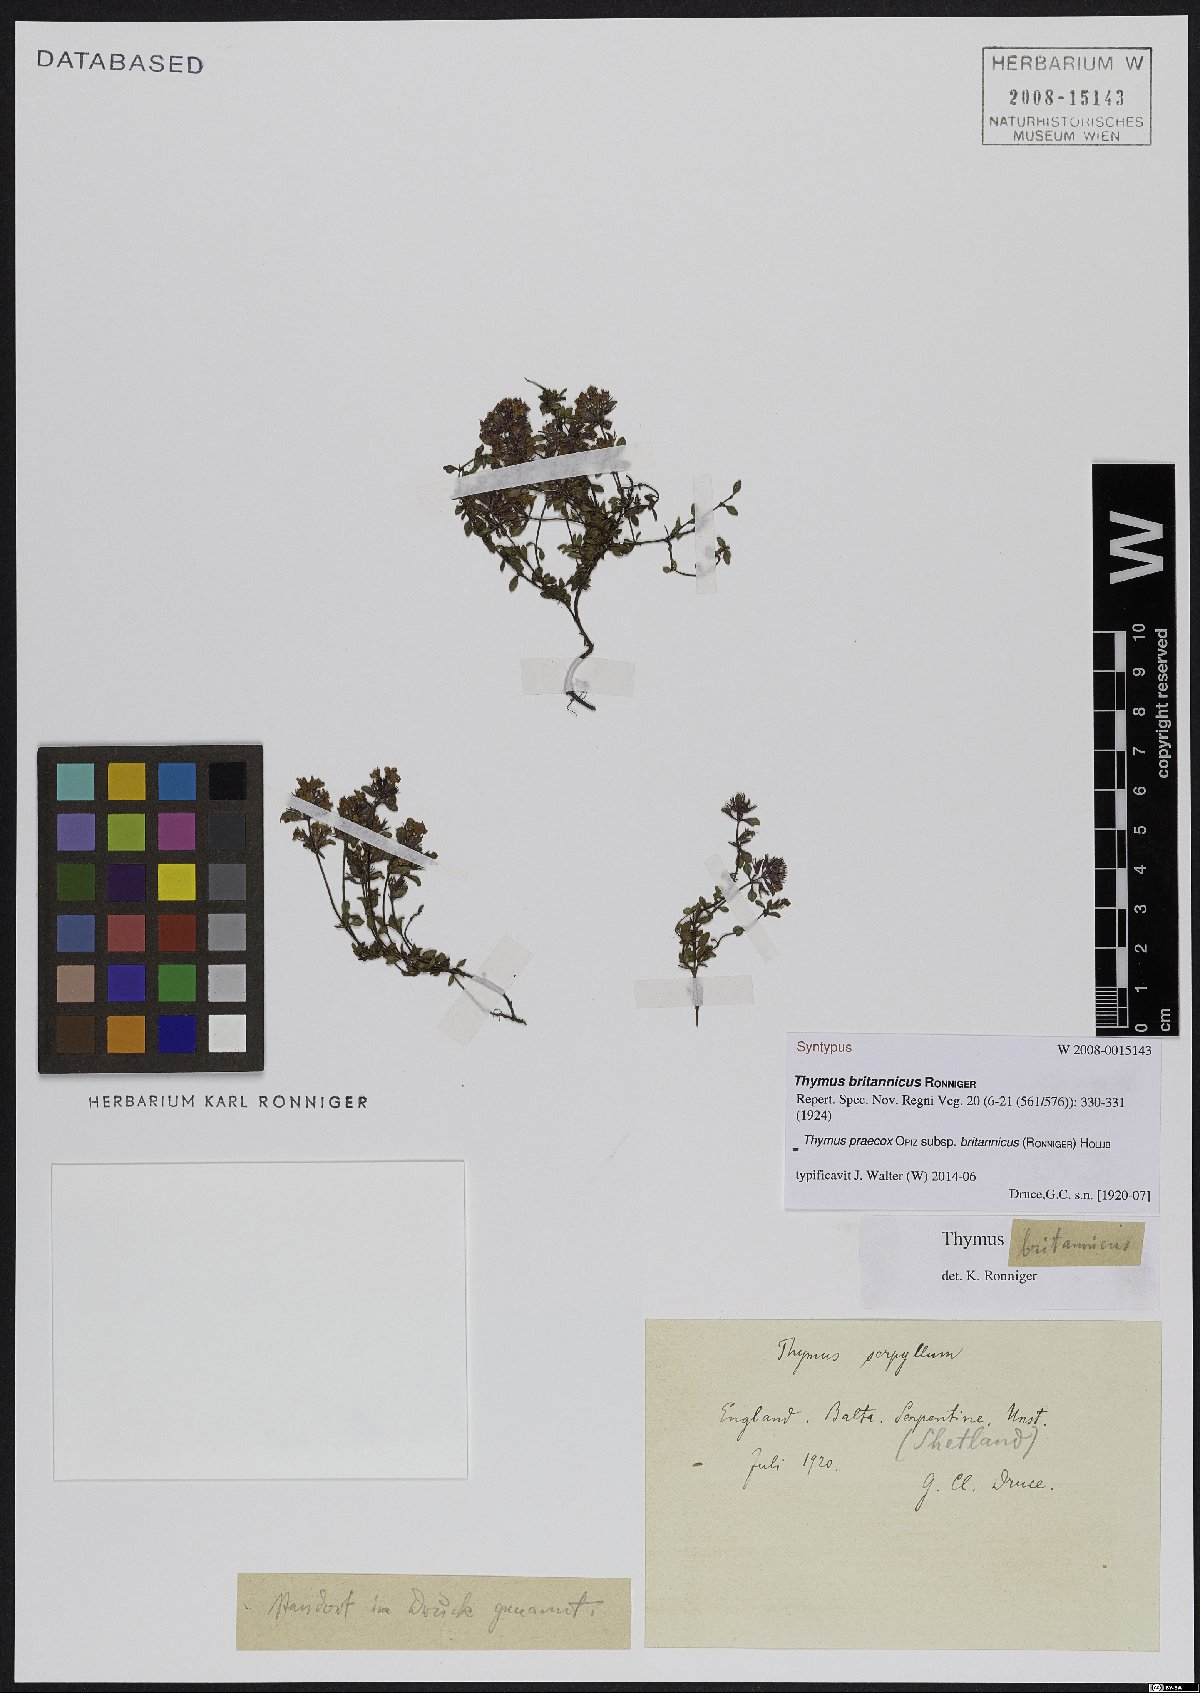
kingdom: Plantae
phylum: Tracheophyta
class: Magnoliopsida
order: Lamiales
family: Lamiaceae
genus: Thymus
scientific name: Thymus praecox
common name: Wild thyme
